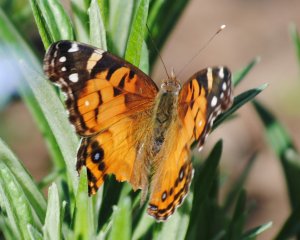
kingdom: Animalia
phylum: Arthropoda
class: Insecta
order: Lepidoptera
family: Nymphalidae
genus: Vanessa
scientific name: Vanessa virginiensis
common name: American Lady
